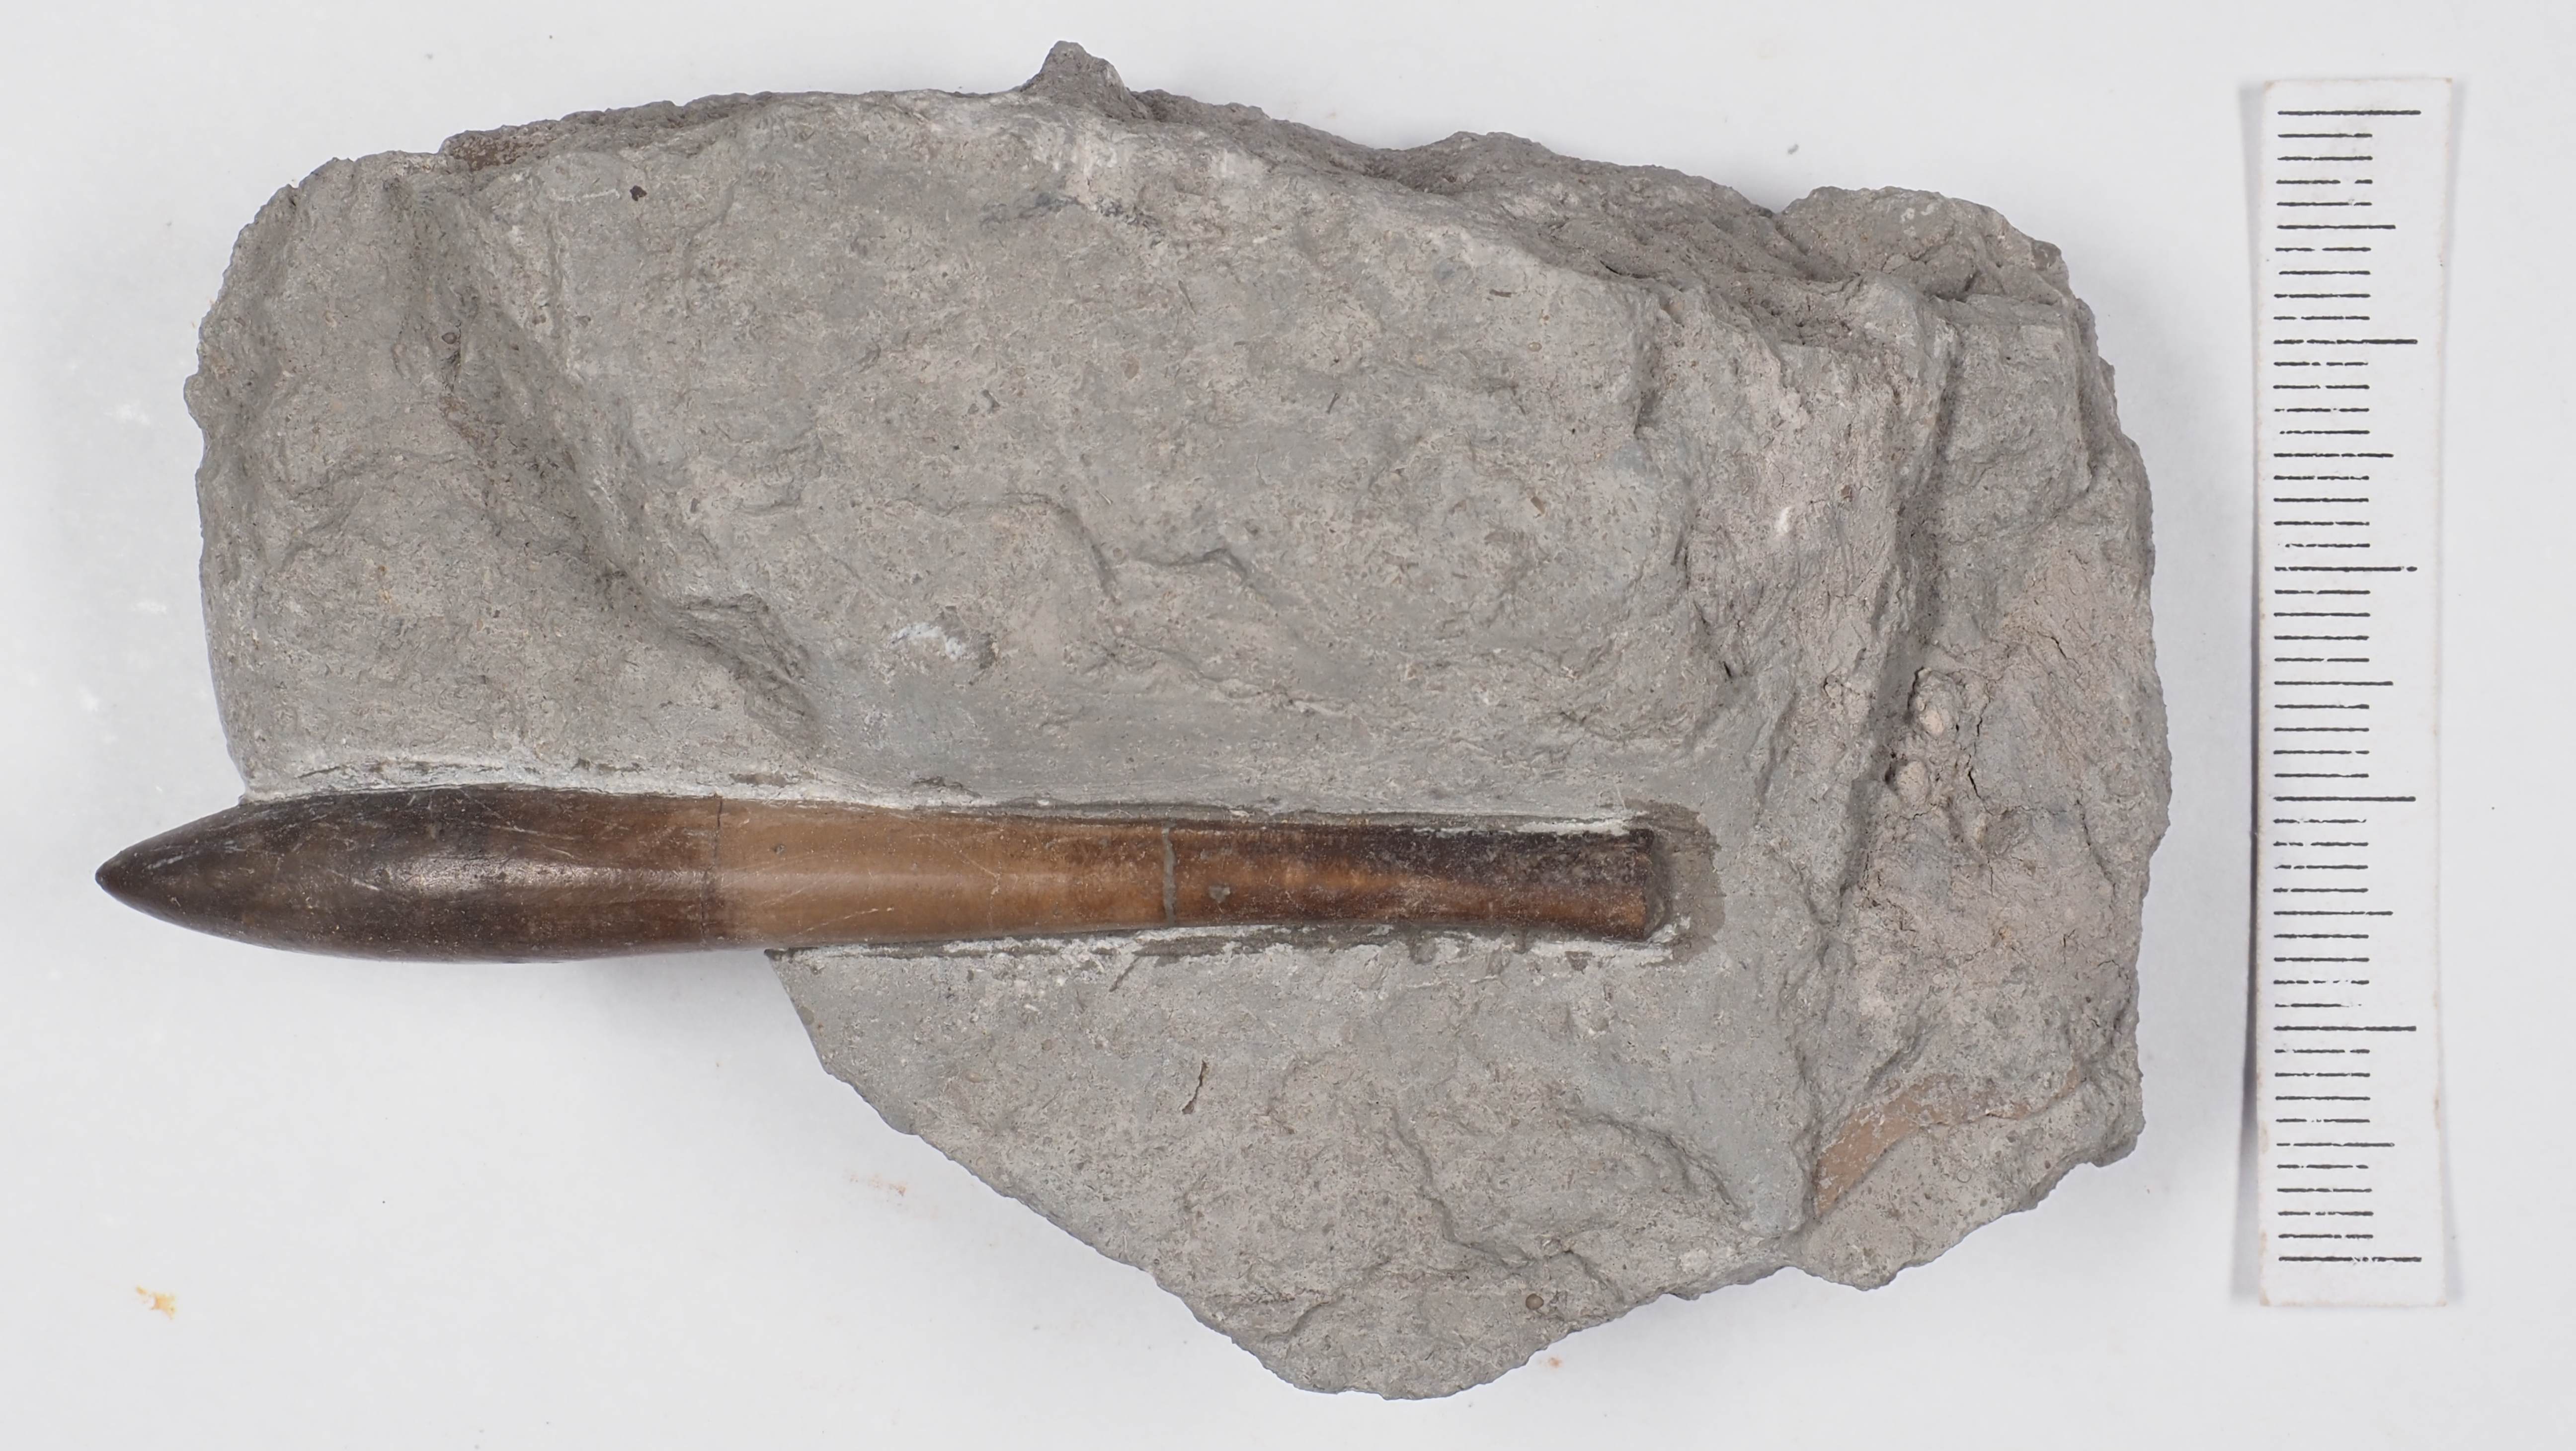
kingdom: Animalia
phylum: Mollusca
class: Cephalopoda
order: Belemnitida
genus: Subhastites
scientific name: Subhastites pseudoclavatus
